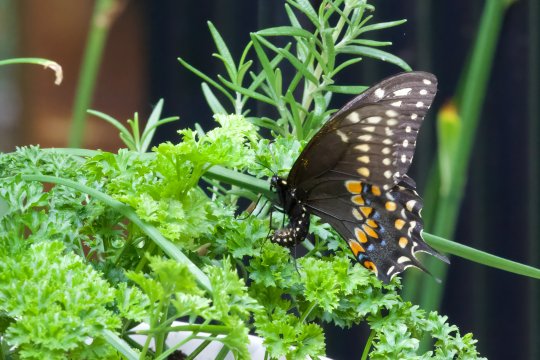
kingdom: Animalia
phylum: Arthropoda
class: Insecta
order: Lepidoptera
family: Papilionidae
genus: Papilio
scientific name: Papilio polyxenes
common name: Black Swallowtail
